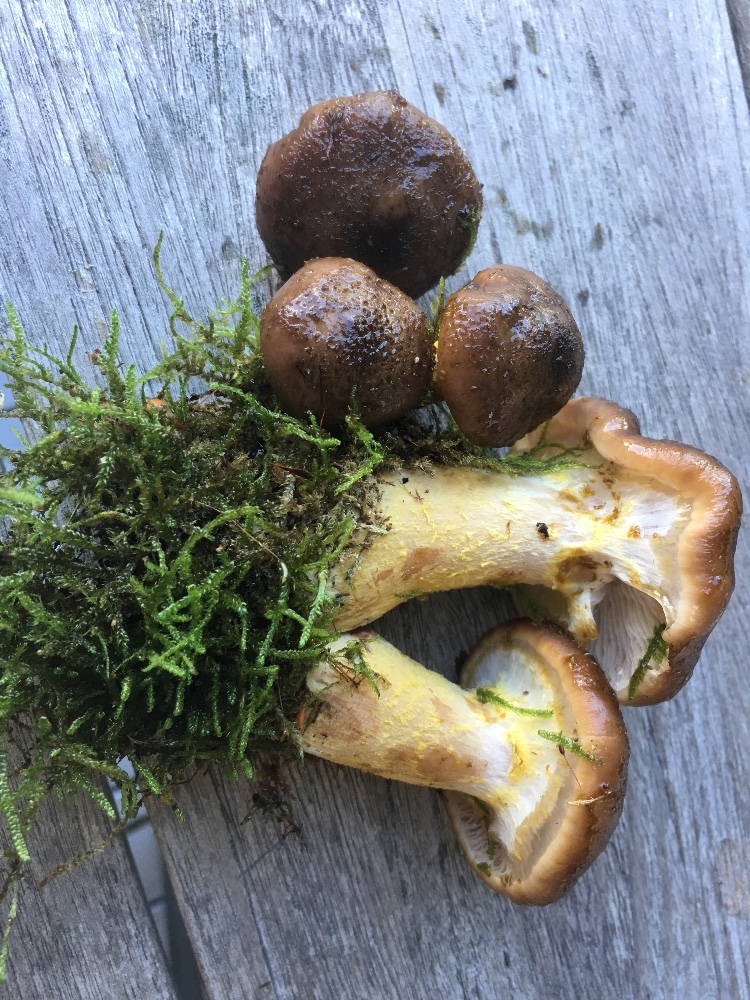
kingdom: Fungi
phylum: Basidiomycota
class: Agaricomycetes
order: Agaricales
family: Physalacriaceae
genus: Armillaria
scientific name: Armillaria lutea
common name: køllestokket honningsvamp
